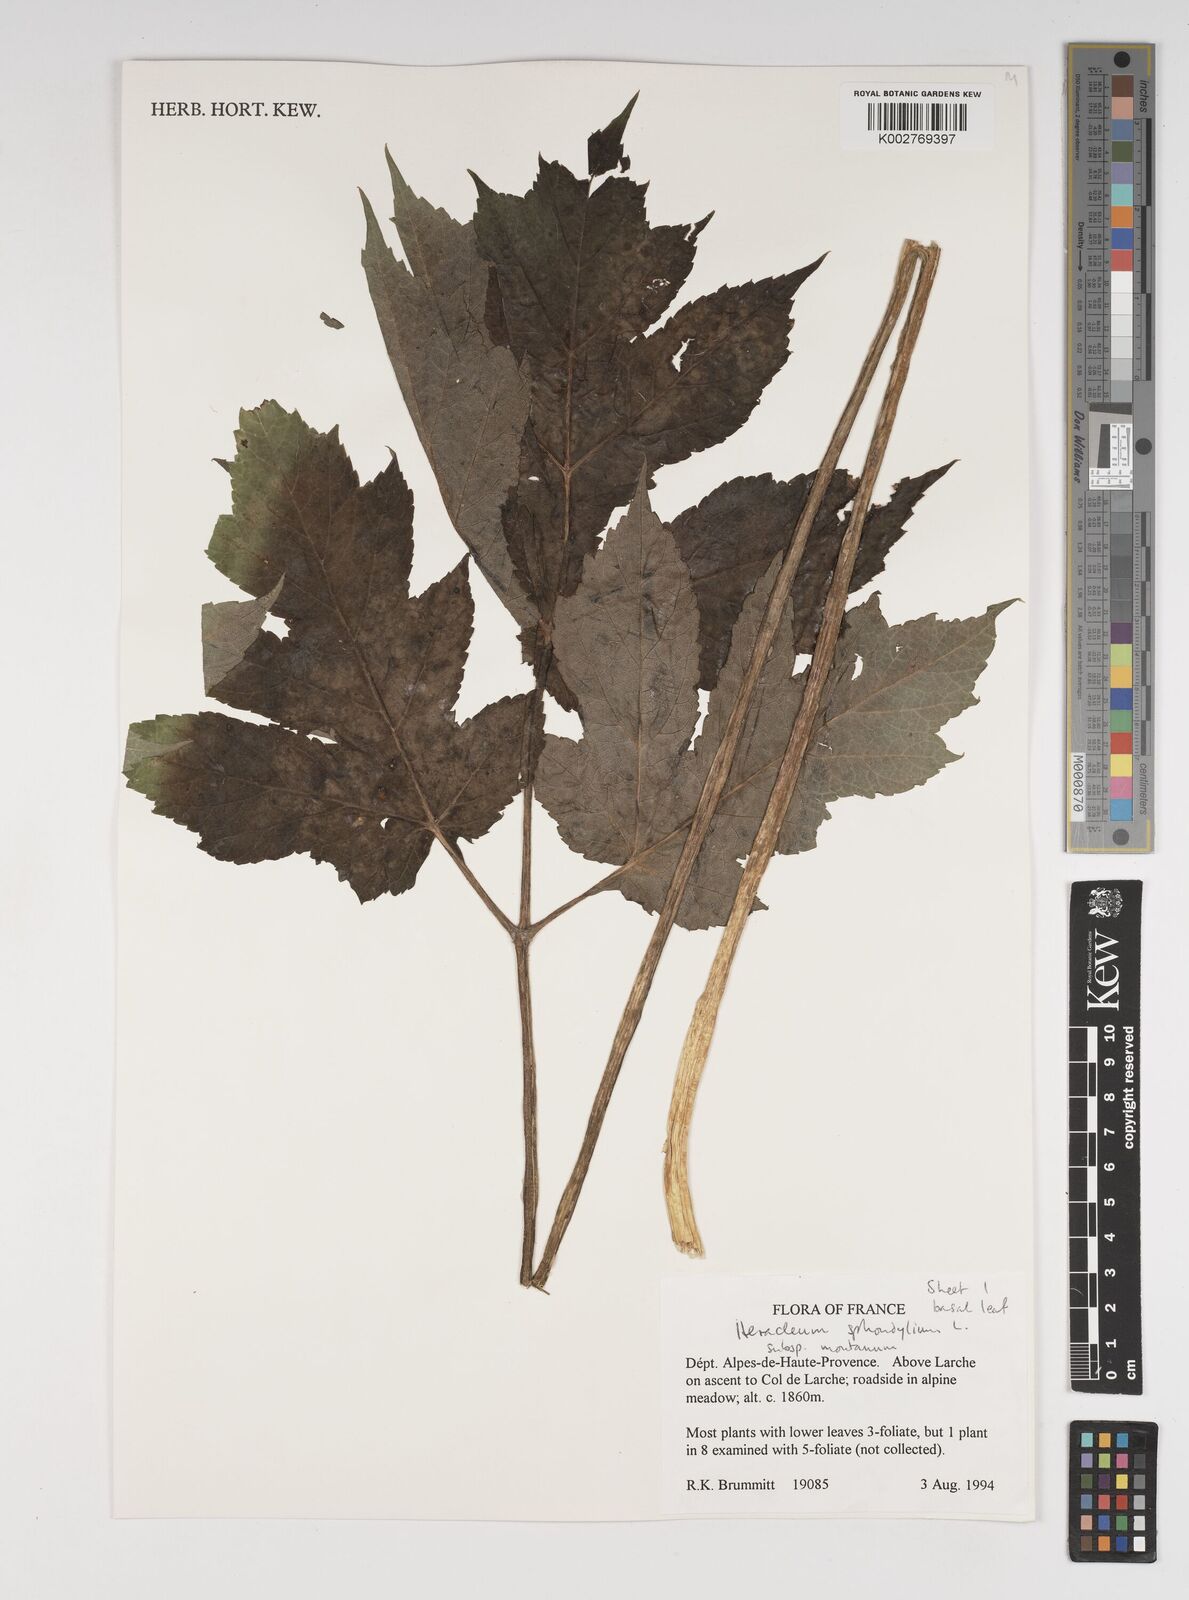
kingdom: Plantae
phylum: Tracheophyta
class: Magnoliopsida
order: Apiales
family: Apiaceae
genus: Heracleum
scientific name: Heracleum sphondylium
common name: Hogweed
